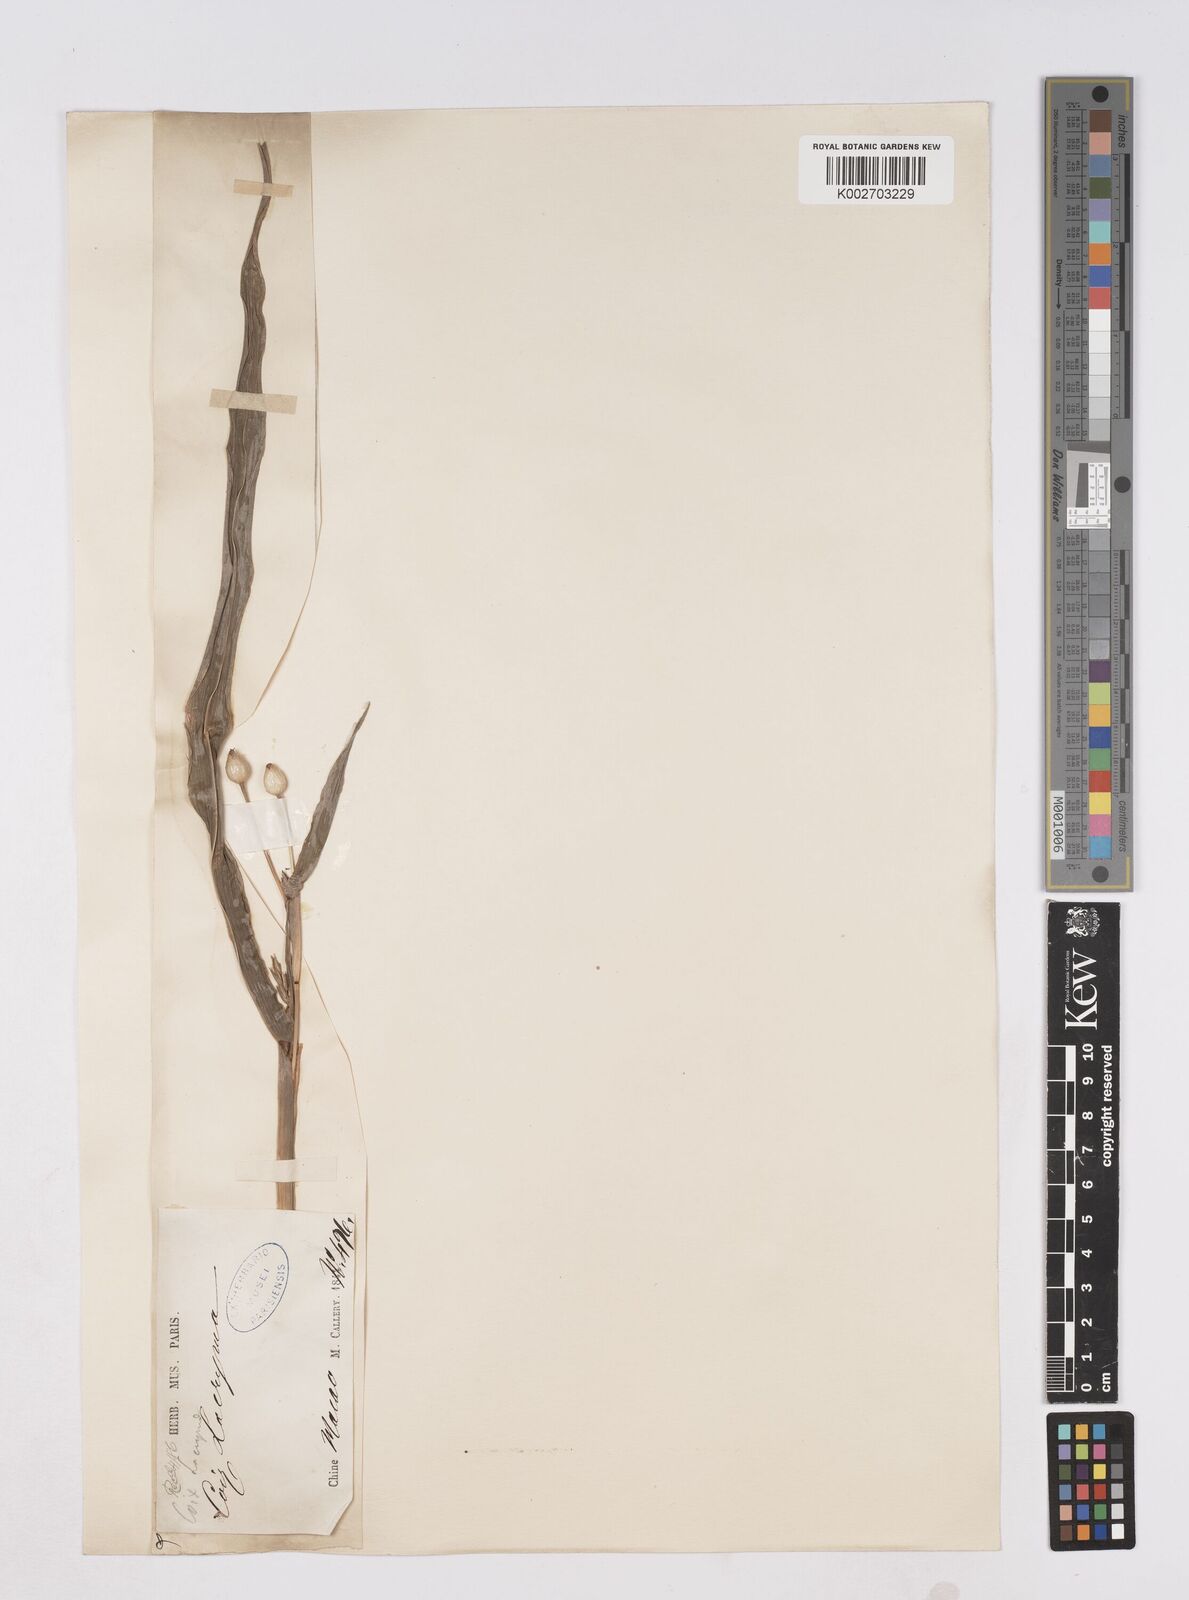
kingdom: Plantae
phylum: Tracheophyta
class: Liliopsida
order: Poales
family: Poaceae
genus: Coix
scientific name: Coix lacryma-jobi
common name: Job's tears
